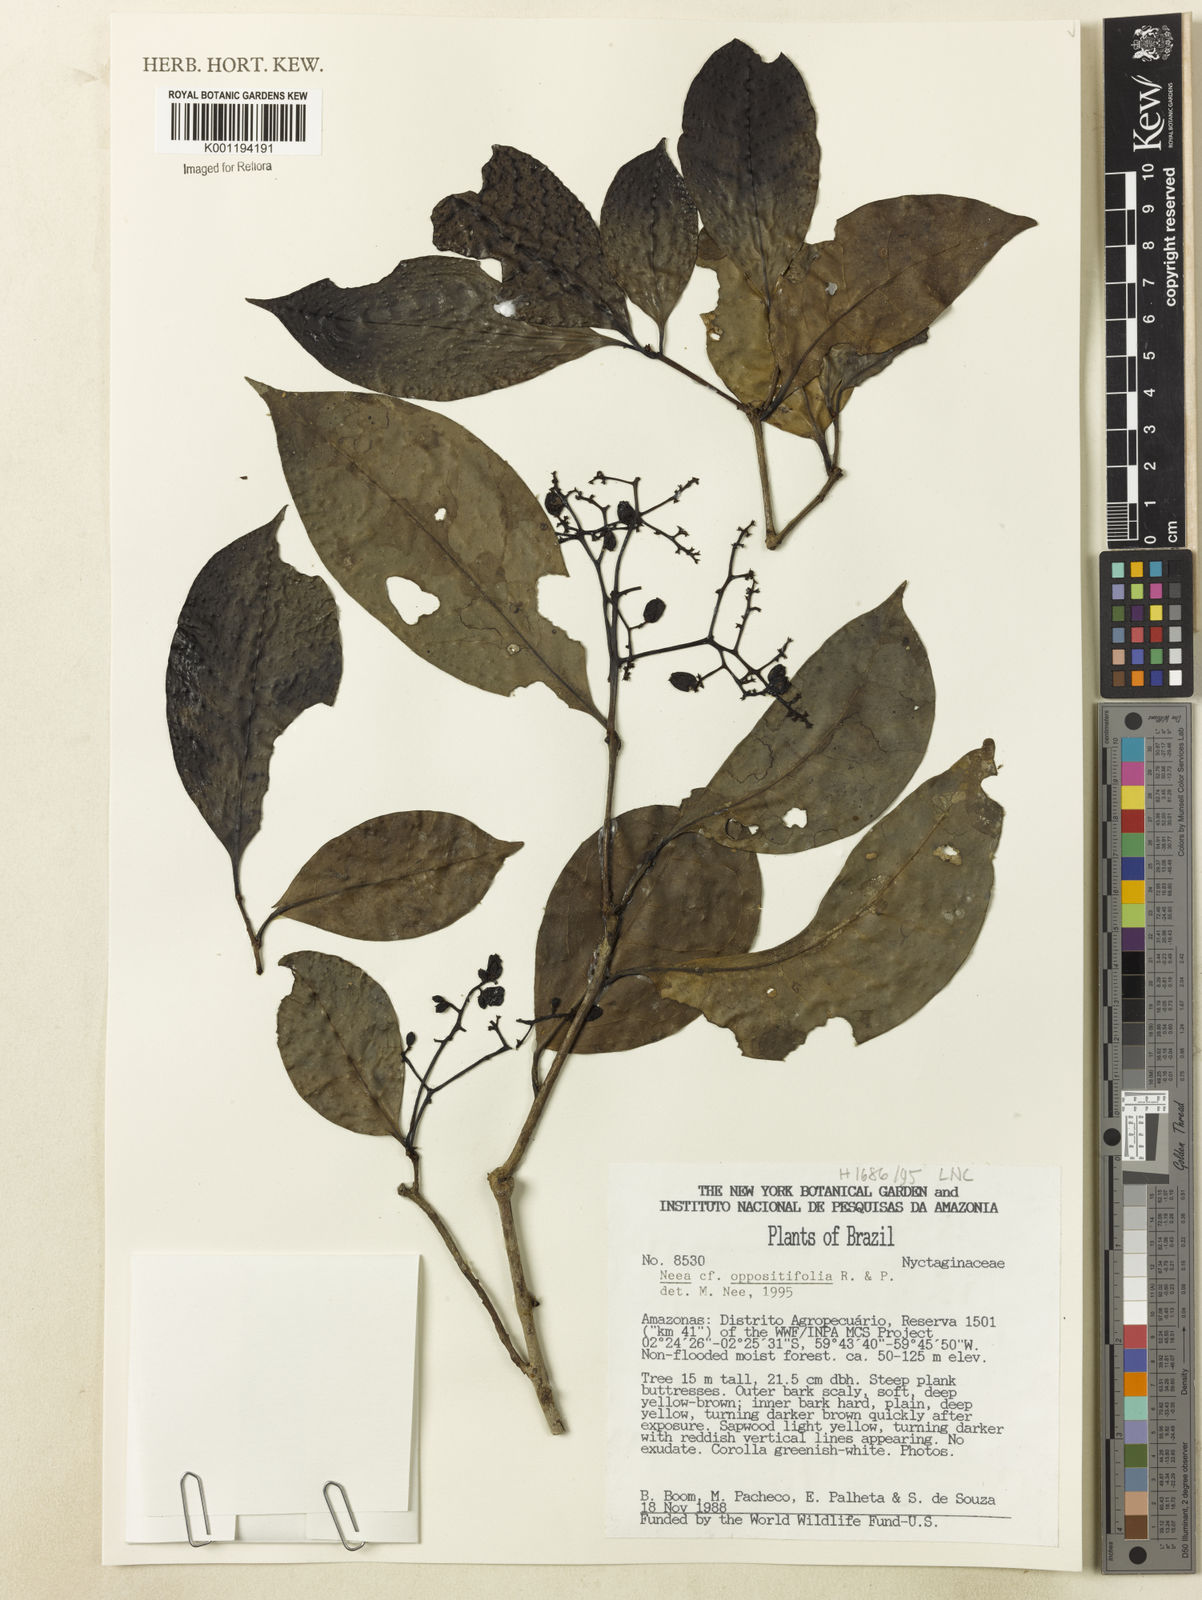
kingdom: Plantae
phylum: Tracheophyta
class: Magnoliopsida
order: Caryophyllales
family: Nyctaginaceae
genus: Neea
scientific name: Neea oppositifolia
